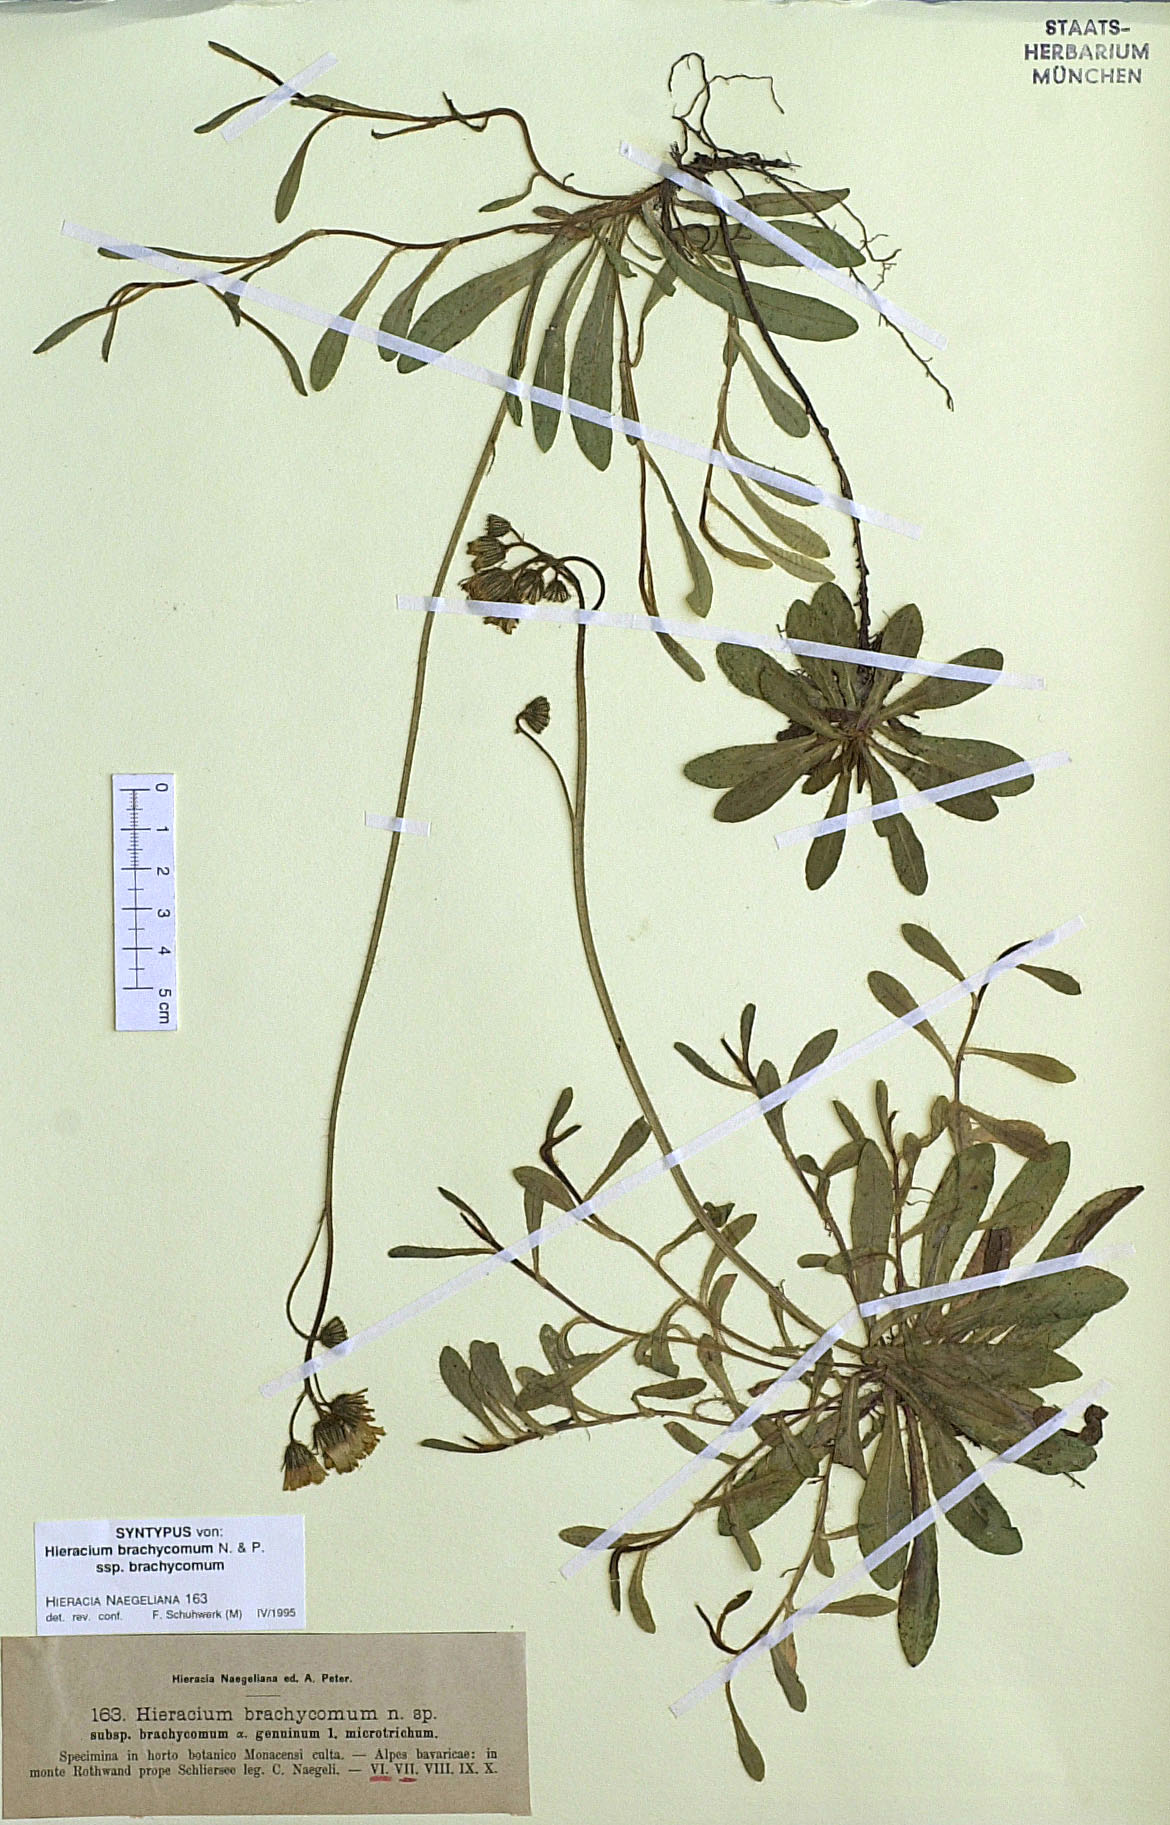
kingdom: Plantae
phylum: Tracheophyta
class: Magnoliopsida
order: Asterales
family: Asteraceae
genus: Pilosella
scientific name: Pilosella brachycoma
